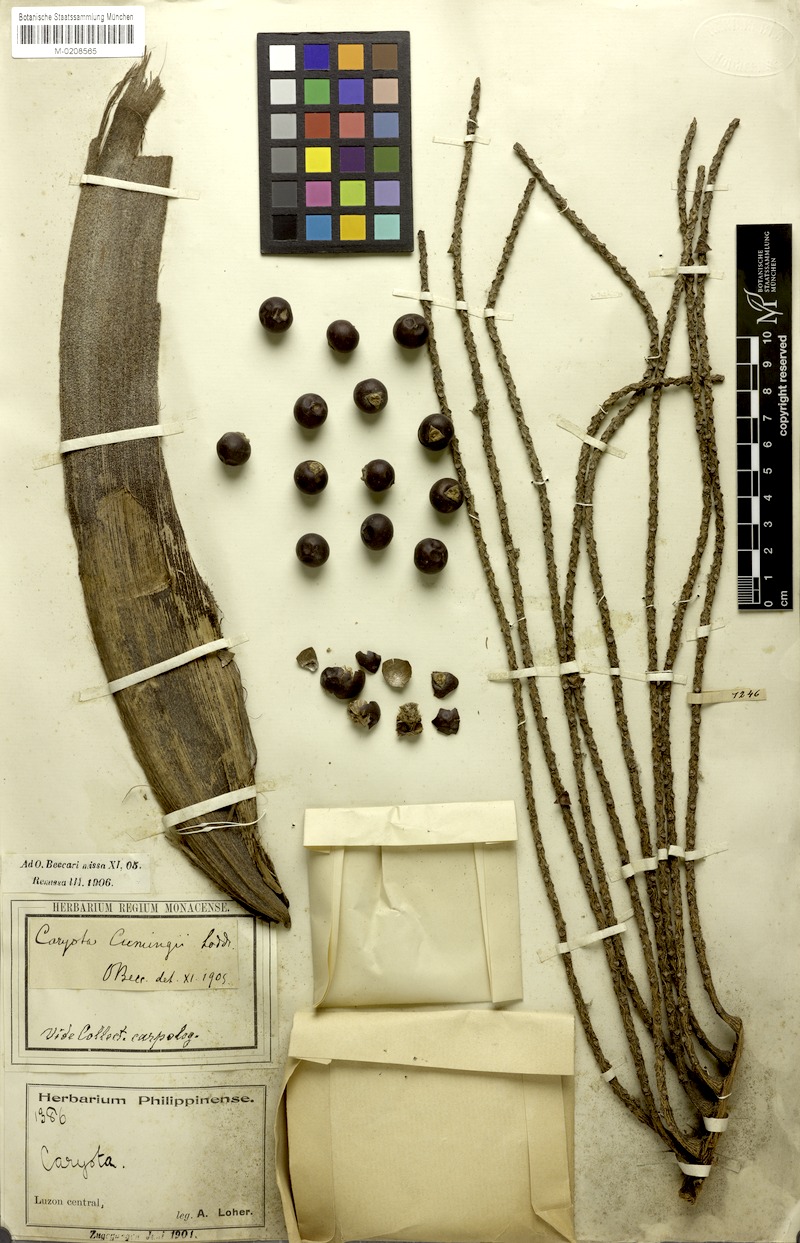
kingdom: Plantae
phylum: Tracheophyta
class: Liliopsida
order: Arecales
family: Arecaceae
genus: Caryota
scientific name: Caryota cumingii
